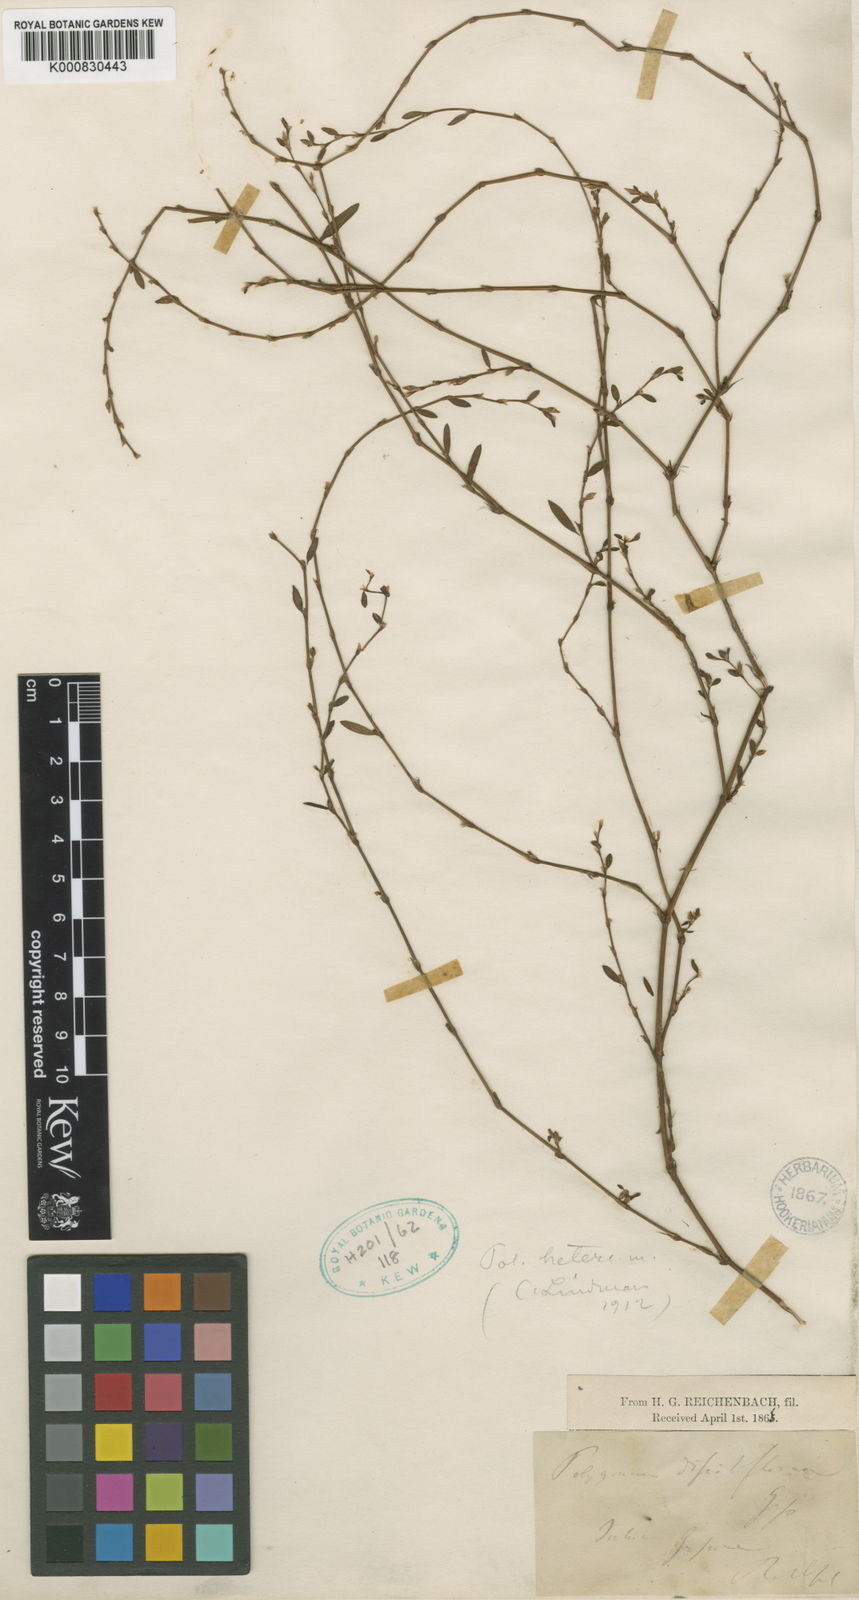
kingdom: Plantae
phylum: Tracheophyta
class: Magnoliopsida
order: Caryophyllales
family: Polygonaceae
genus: Polygonum
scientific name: Polygonum aviculare
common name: Prostrate knotweed
